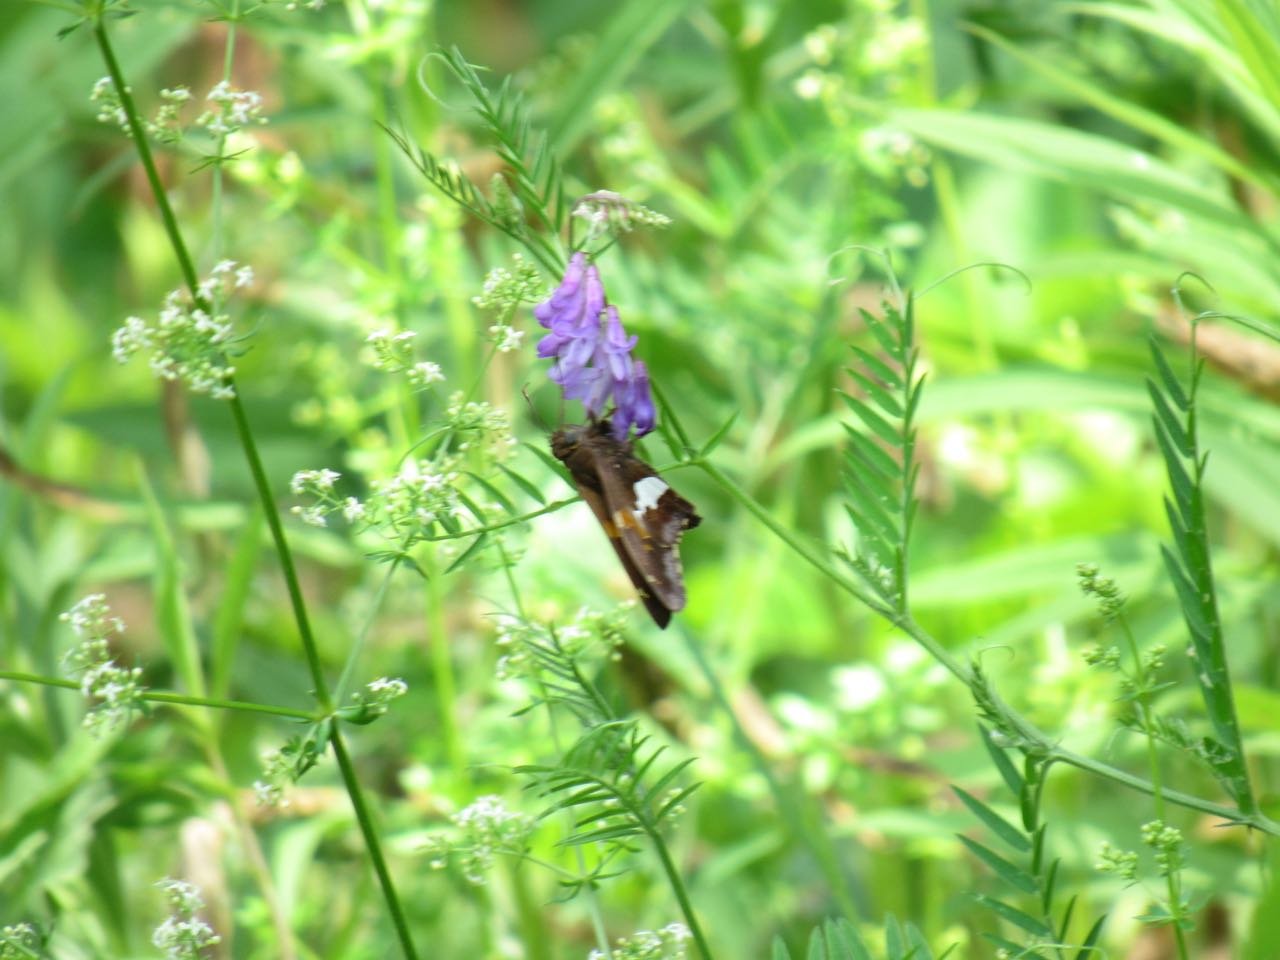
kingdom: Animalia
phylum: Arthropoda
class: Insecta
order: Lepidoptera
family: Hesperiidae
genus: Epargyreus
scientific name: Epargyreus clarus
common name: Silver-spotted Skipper
